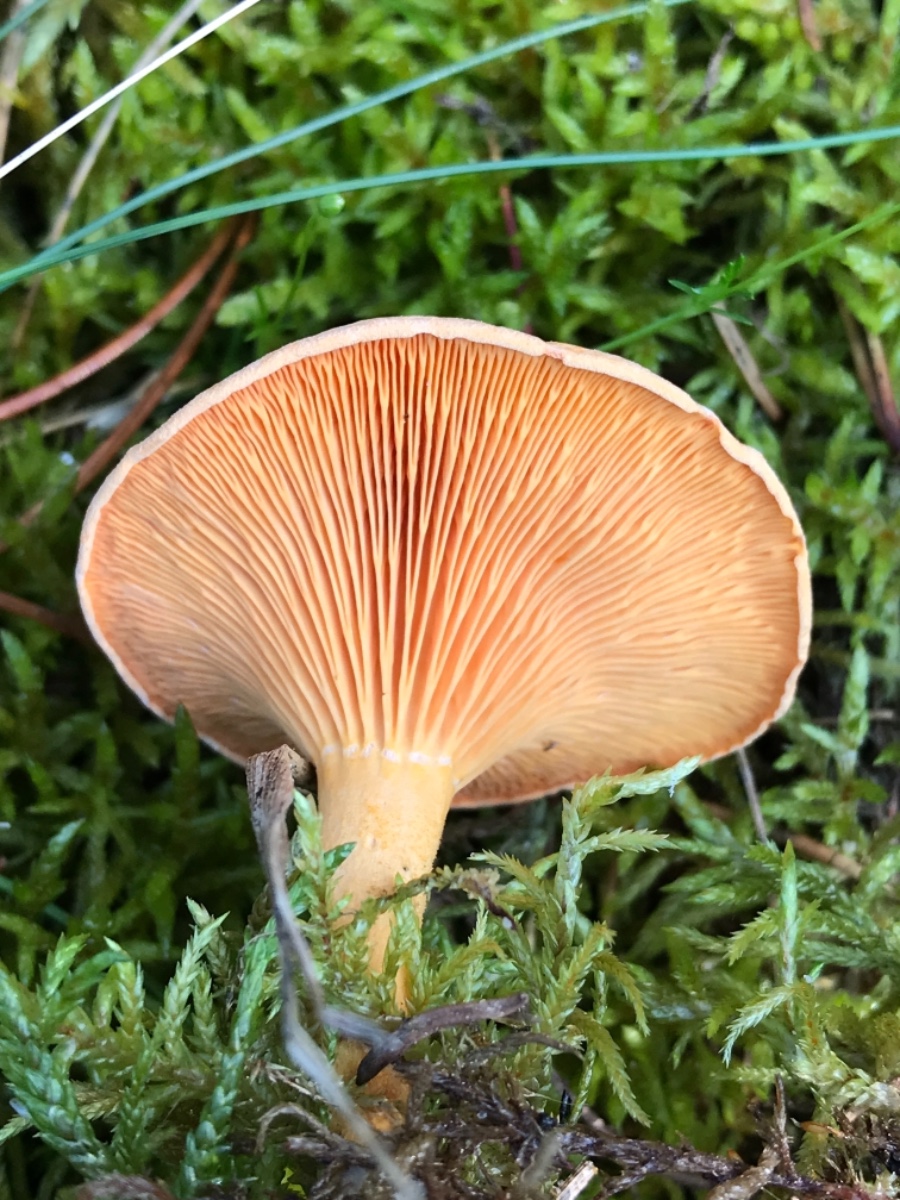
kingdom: Fungi
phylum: Basidiomycota
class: Agaricomycetes
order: Boletales
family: Hygrophoropsidaceae
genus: Hygrophoropsis
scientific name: Hygrophoropsis aurantiaca
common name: almindelig orangekantarel
